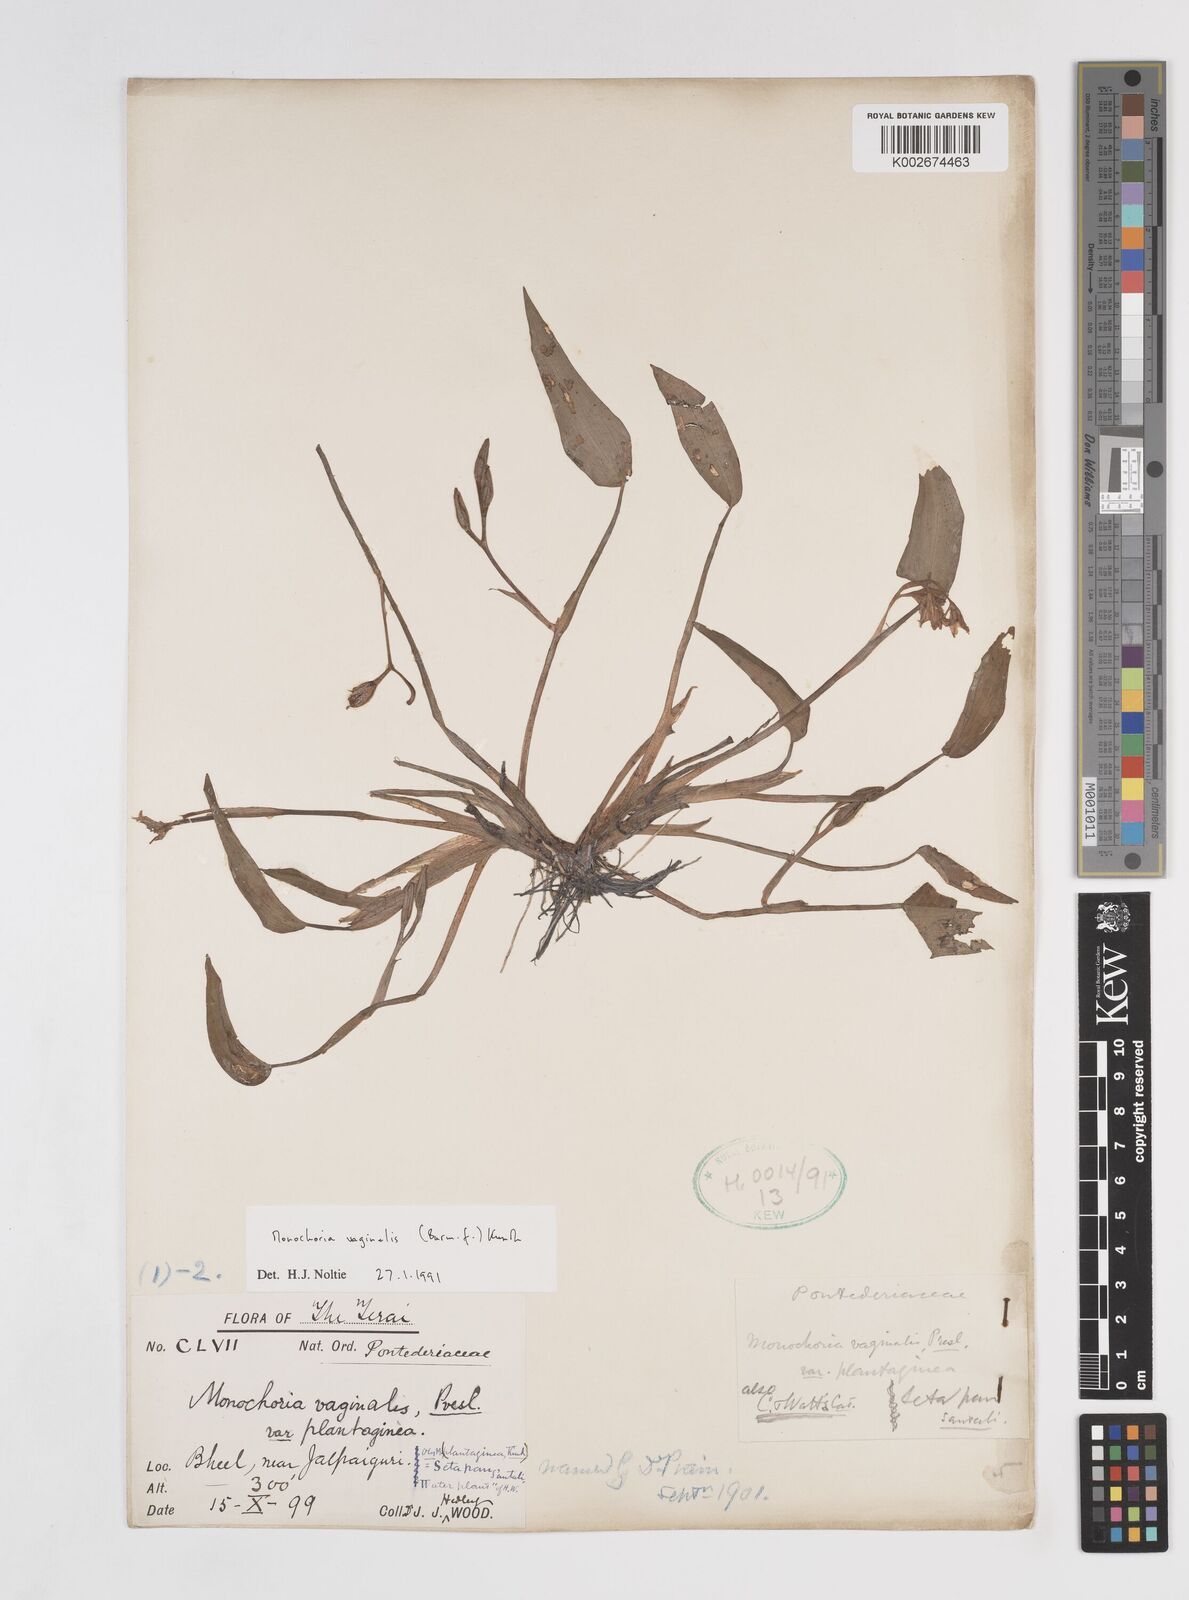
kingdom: Plantae
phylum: Tracheophyta
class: Liliopsida
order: Commelinales
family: Pontederiaceae
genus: Pontederia
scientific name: Pontederia vaginalis
